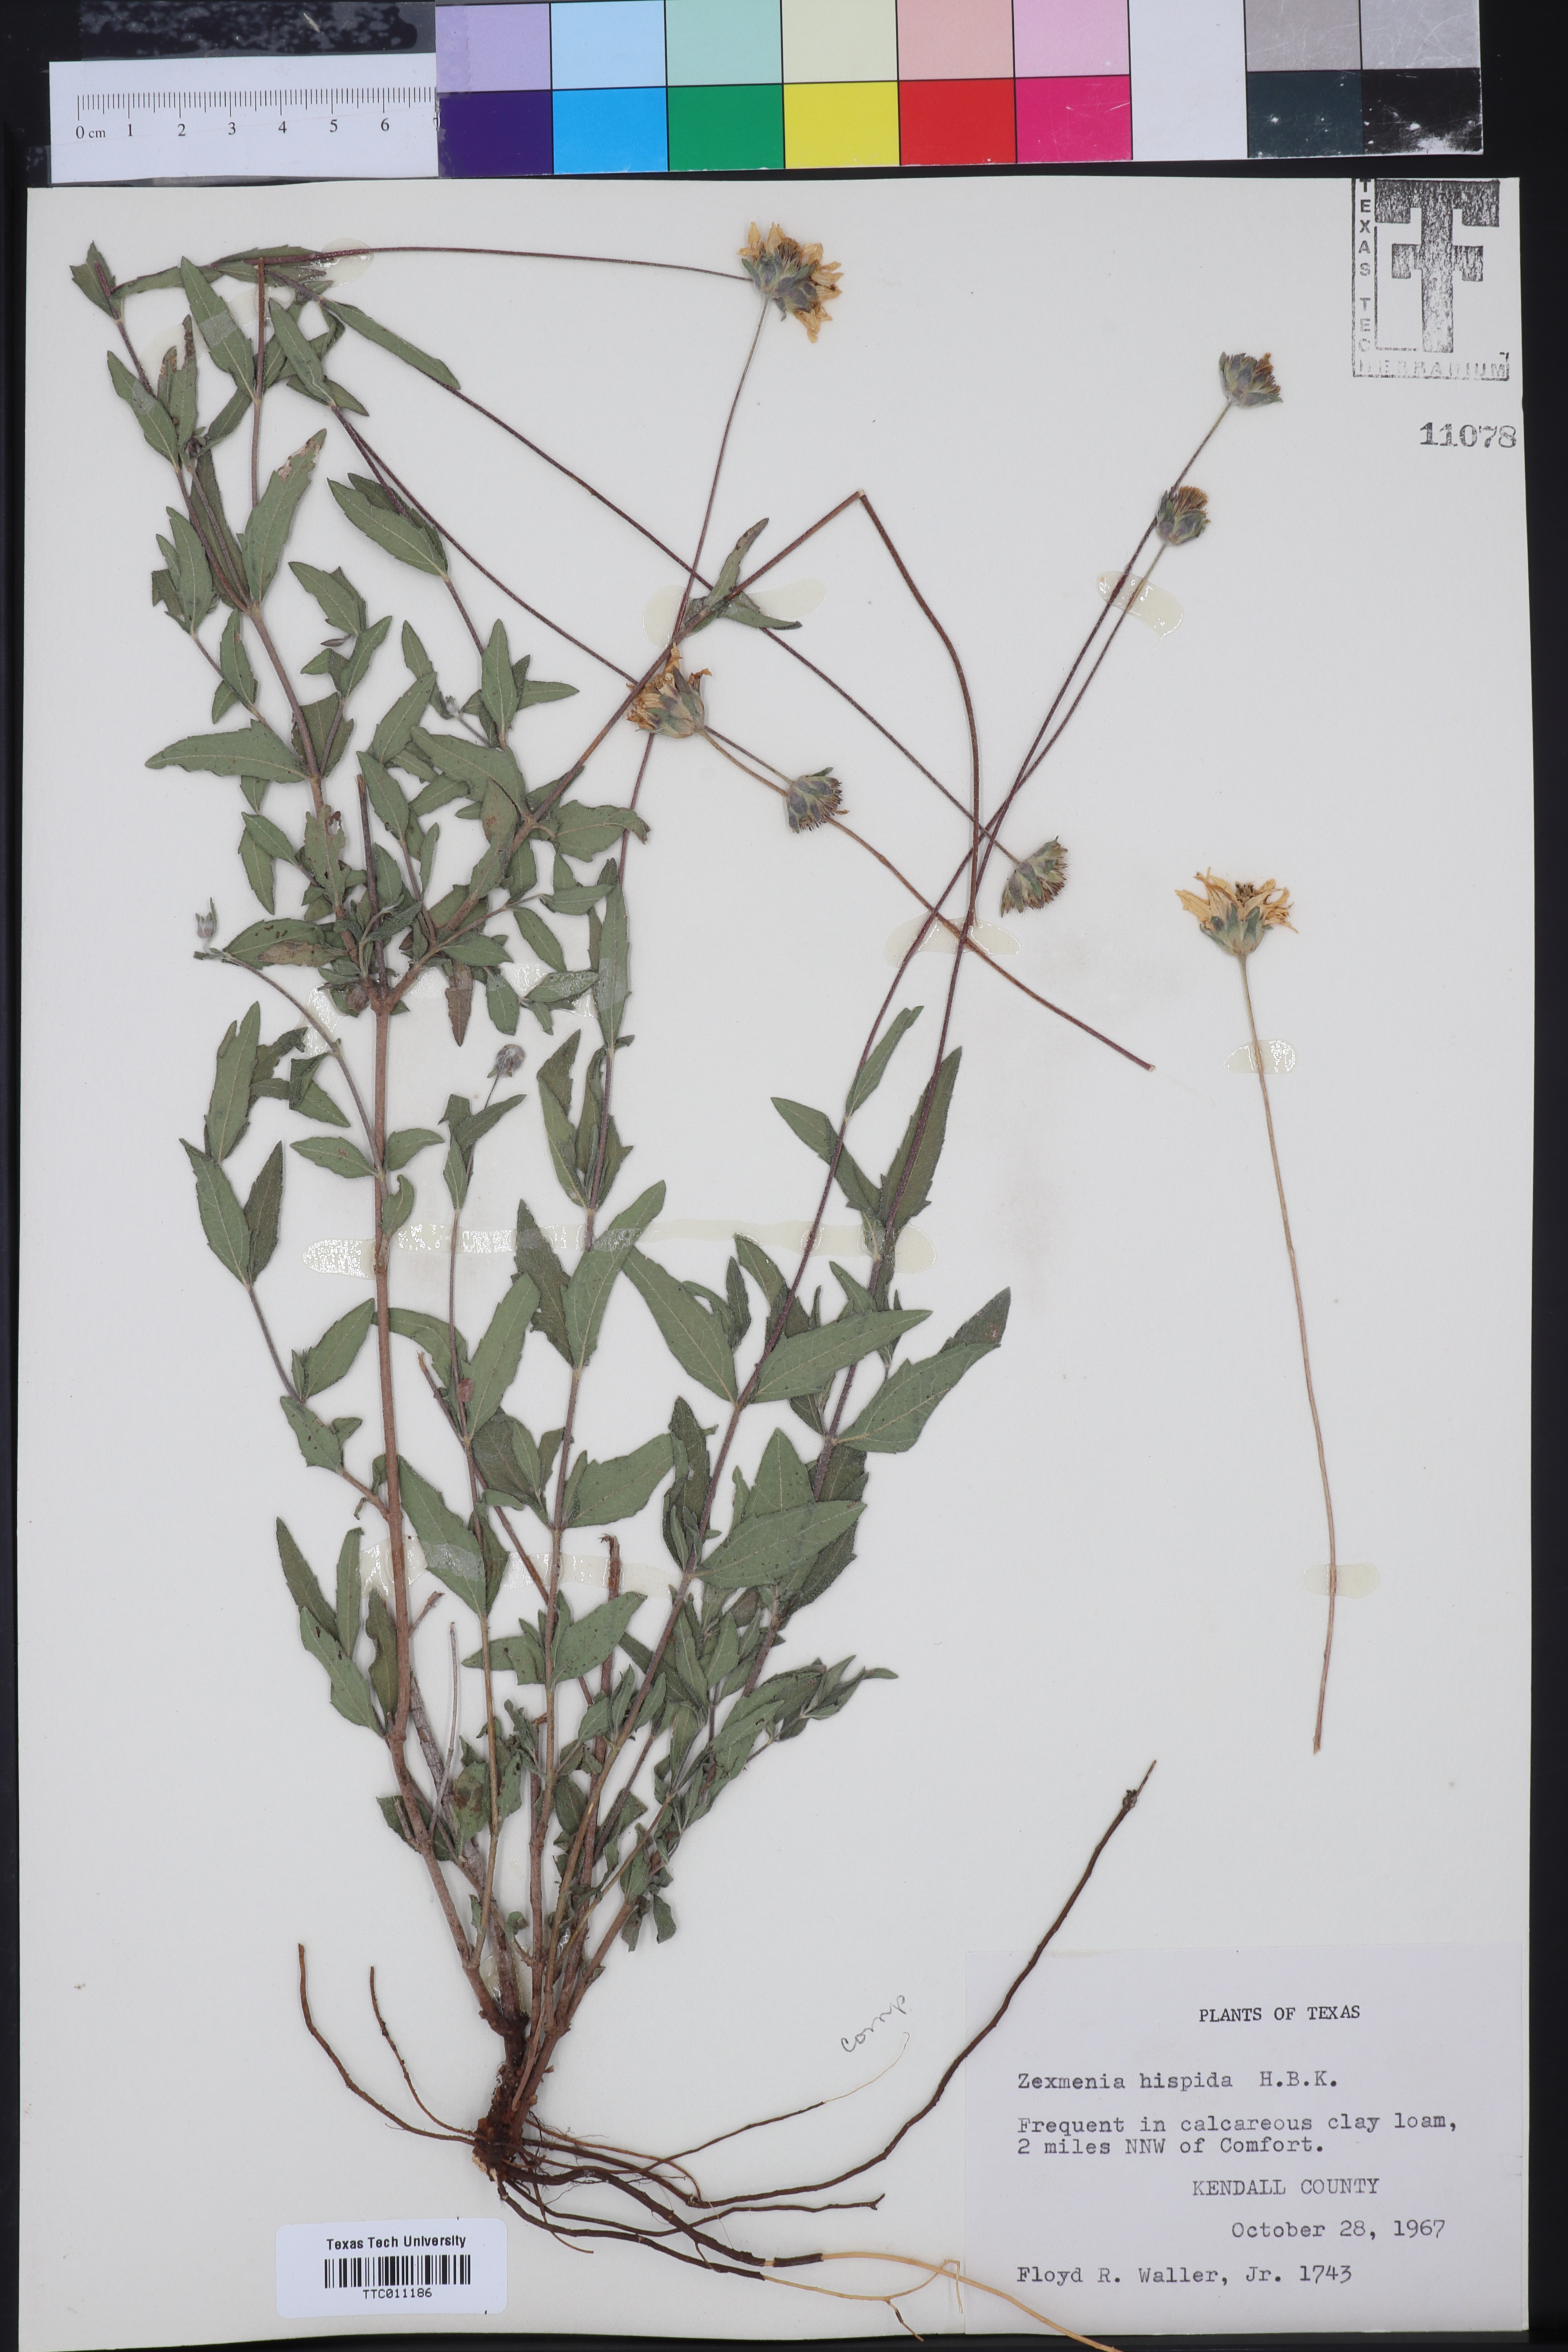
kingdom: Plantae
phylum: Tracheophyta
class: Magnoliopsida
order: Asterales
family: Asteraceae
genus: Wedelia
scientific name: Wedelia acapulcensis
